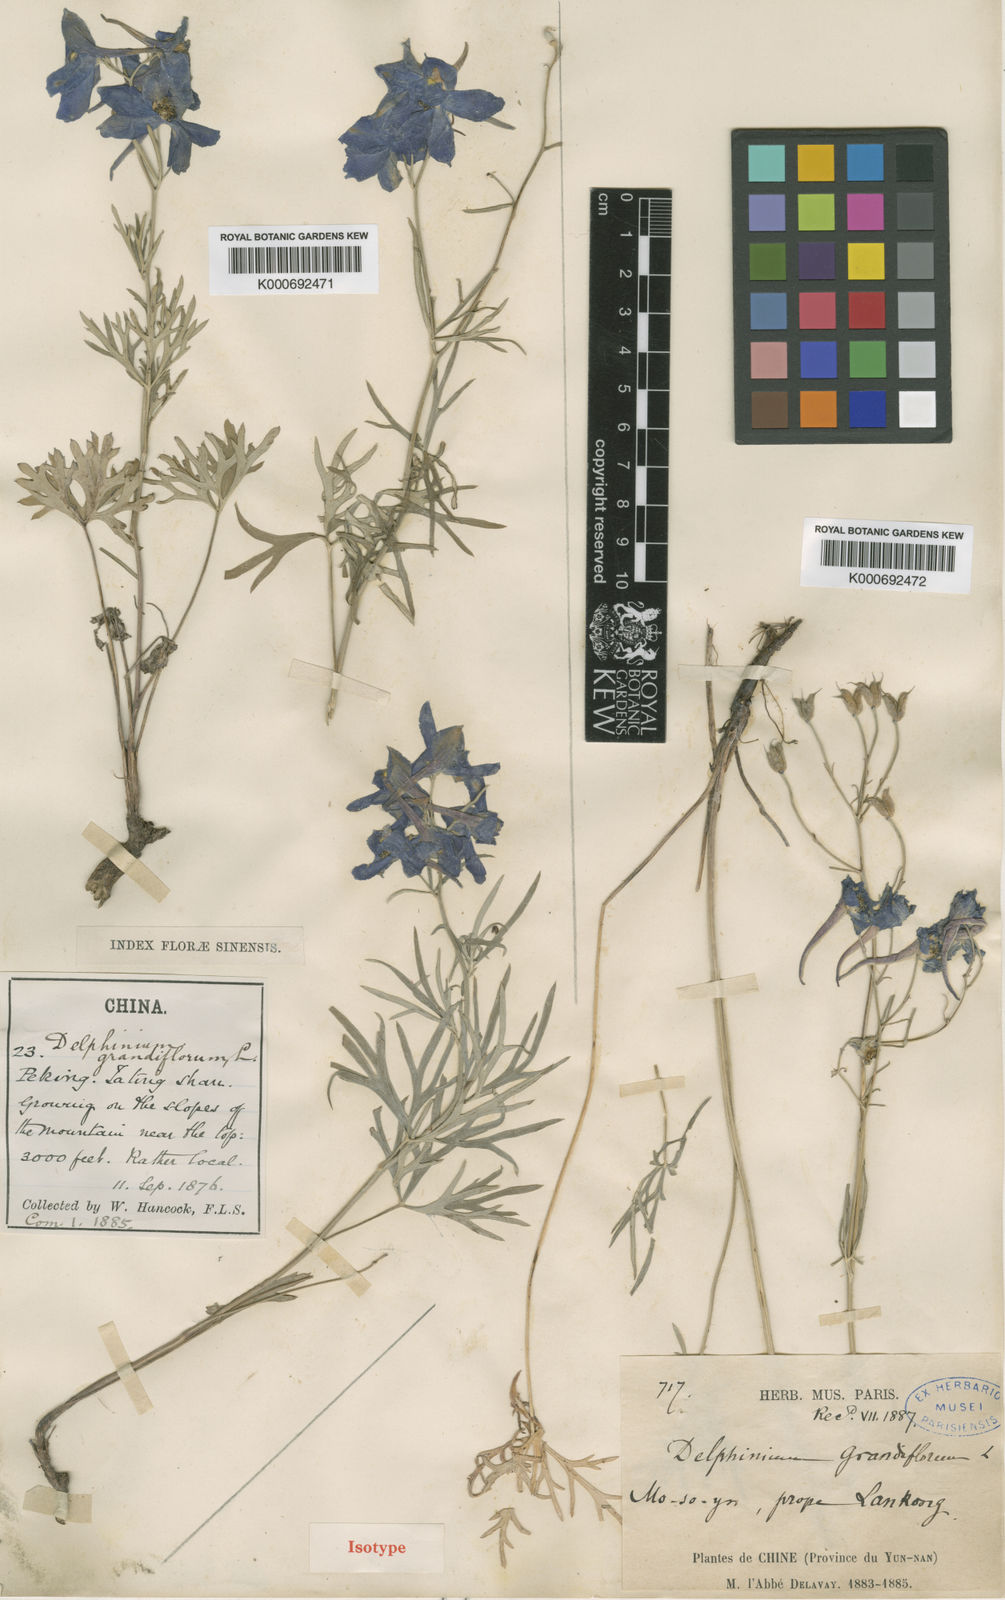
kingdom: Plantae
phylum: Tracheophyta
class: Magnoliopsida
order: Ranunculales
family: Ranunculaceae
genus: Delphinium
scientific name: Delphinium tetanoplectrum
